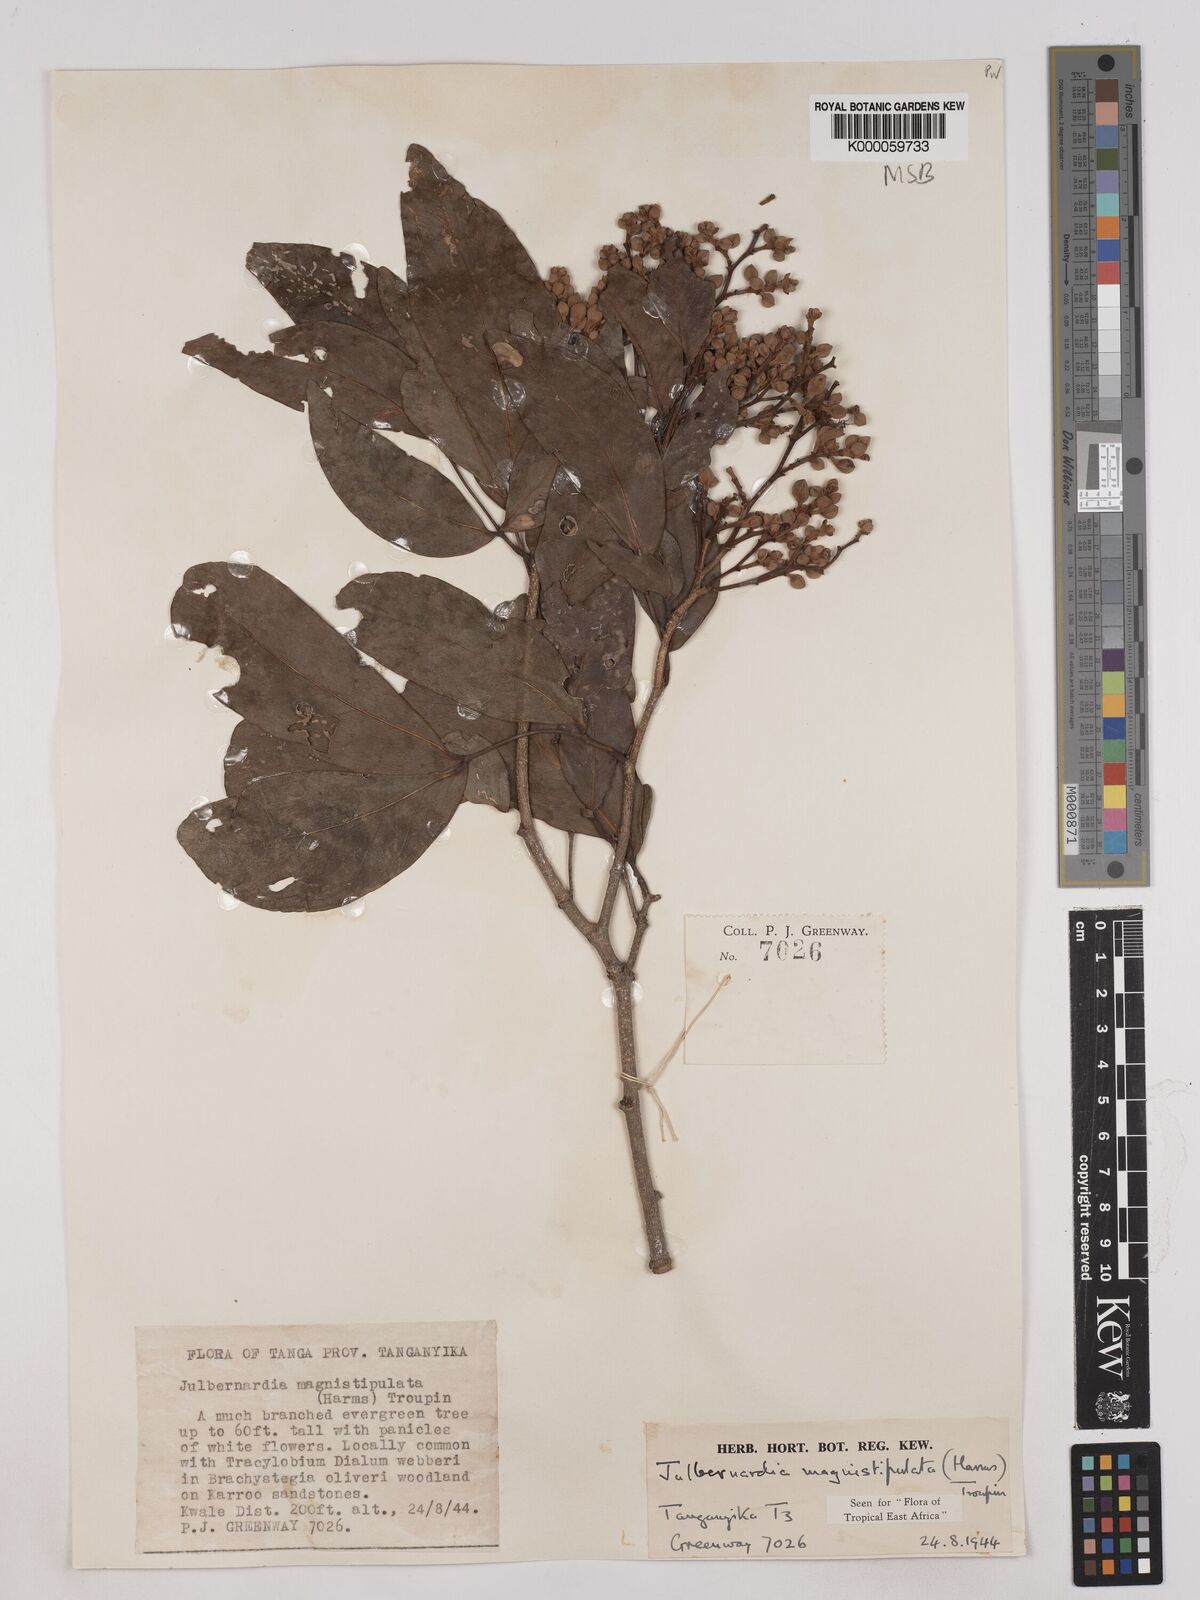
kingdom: Plantae
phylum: Tracheophyta
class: Magnoliopsida
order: Fabales
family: Fabaceae
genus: Julbernardia
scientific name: Julbernardia magnistipulata
